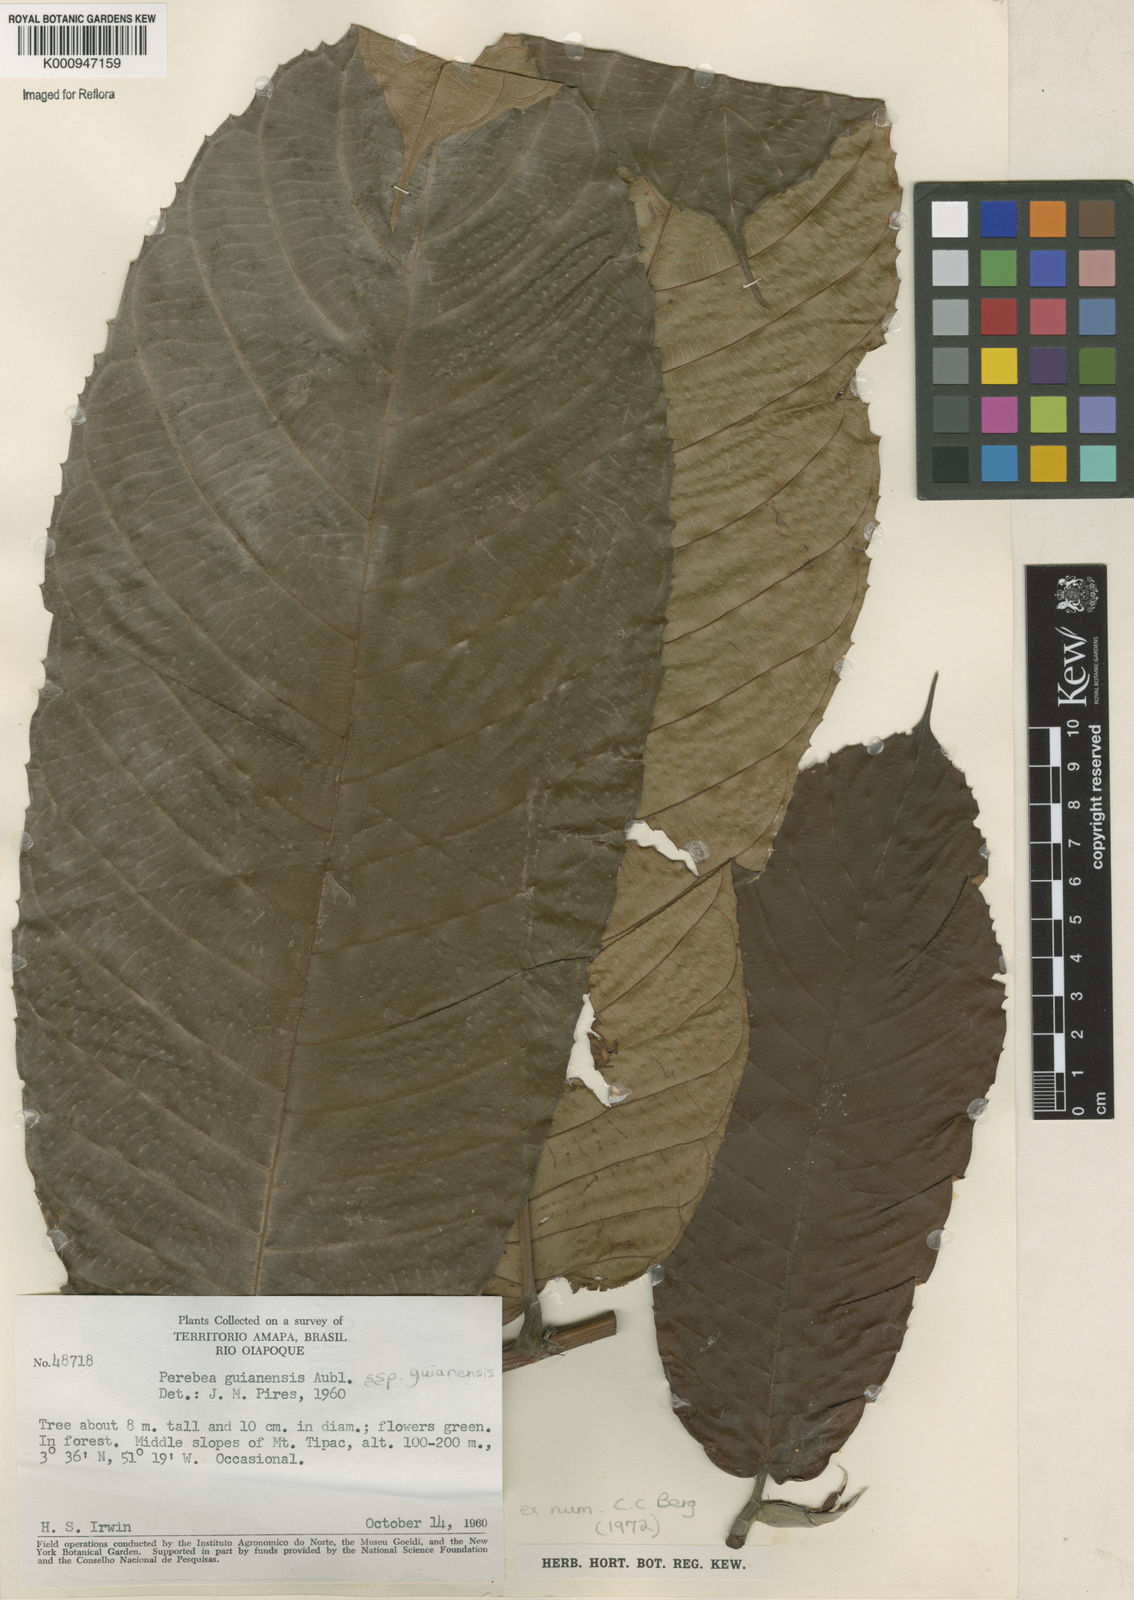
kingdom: Plantae
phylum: Tracheophyta
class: Magnoliopsida
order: Rosales
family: Moraceae
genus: Perebea
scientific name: Perebea guianensis
